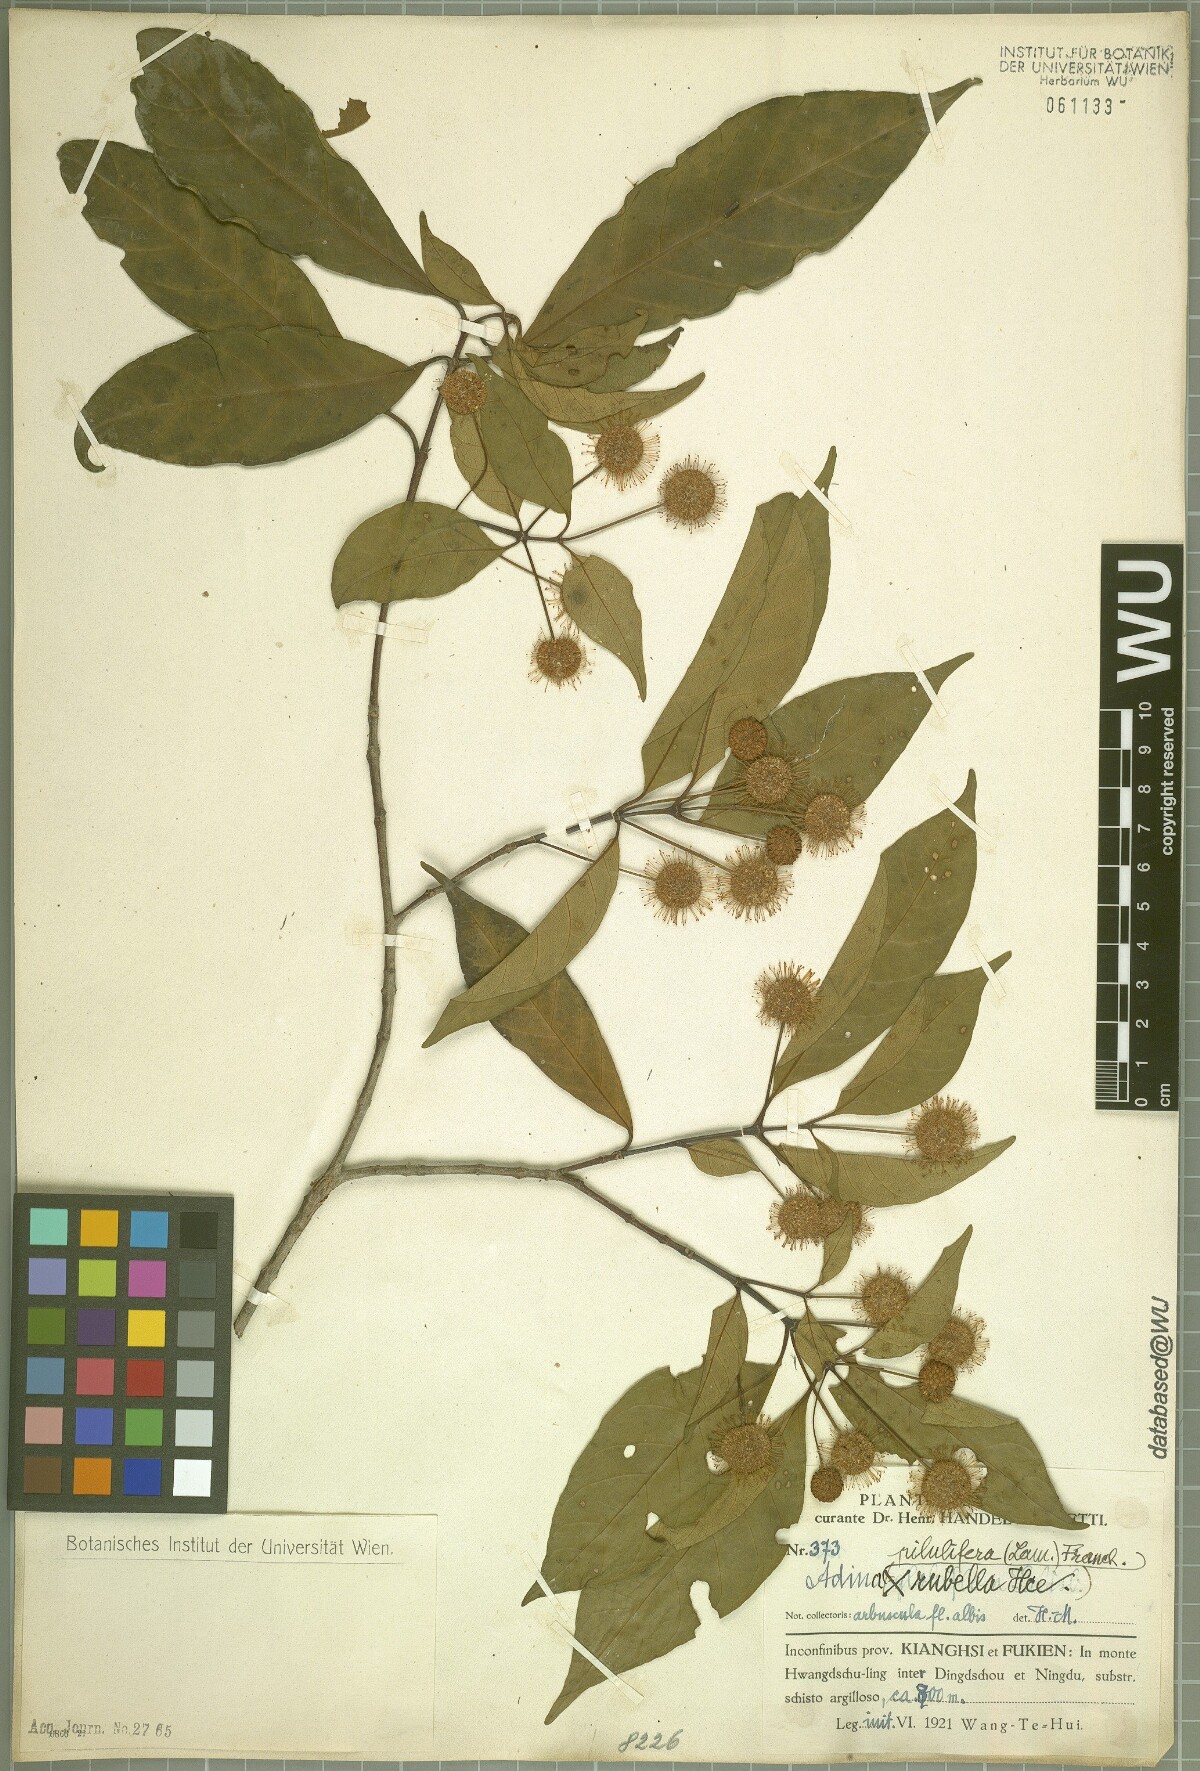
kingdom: Plantae
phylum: Tracheophyta
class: Magnoliopsida
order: Gentianales
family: Rubiaceae
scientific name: Rubiaceae
